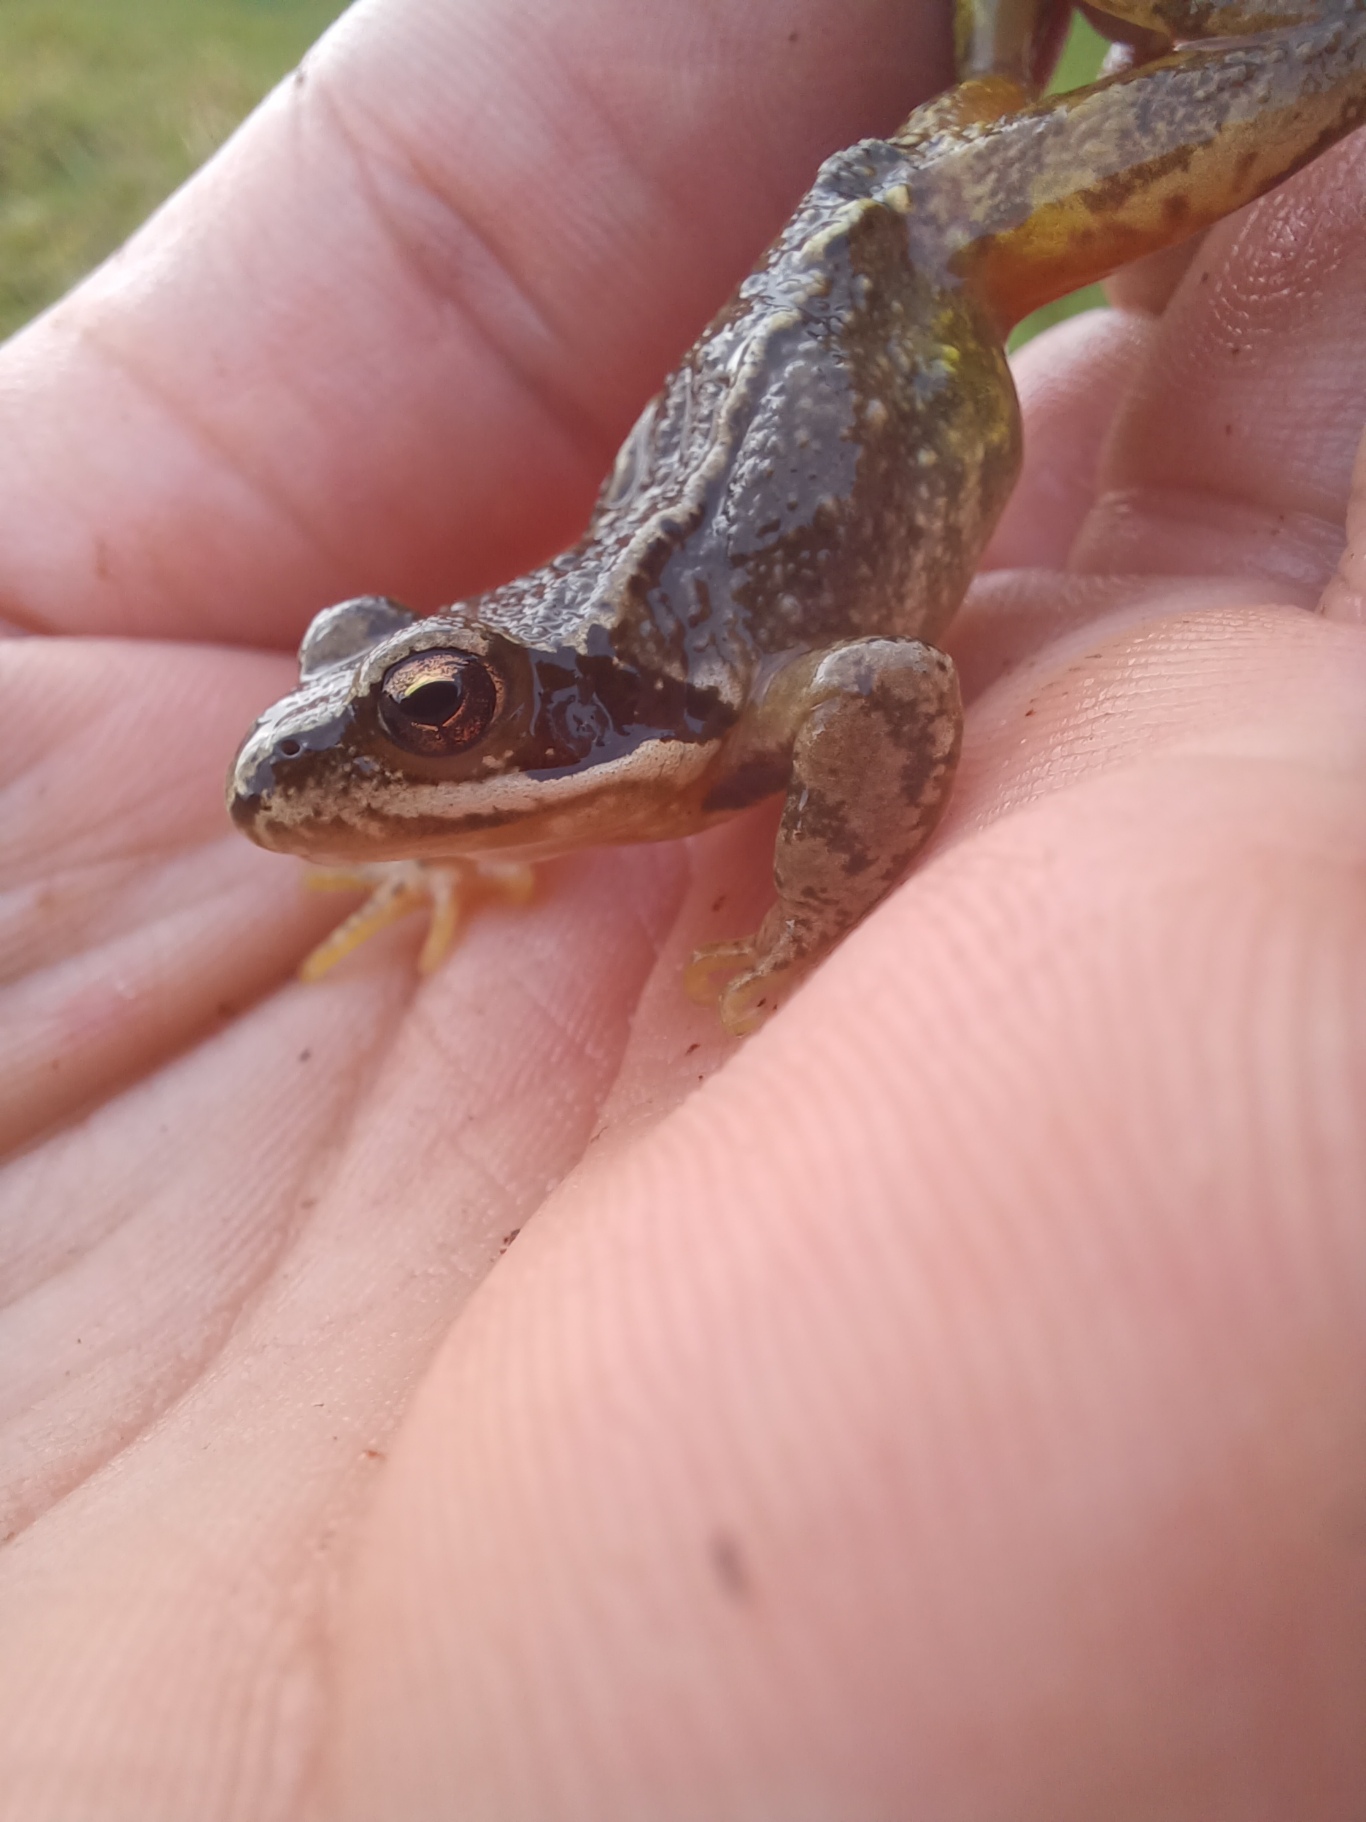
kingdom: Animalia
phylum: Chordata
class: Amphibia
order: Anura
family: Ranidae
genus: Rana
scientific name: Rana temporaria
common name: Butsnudet frø
